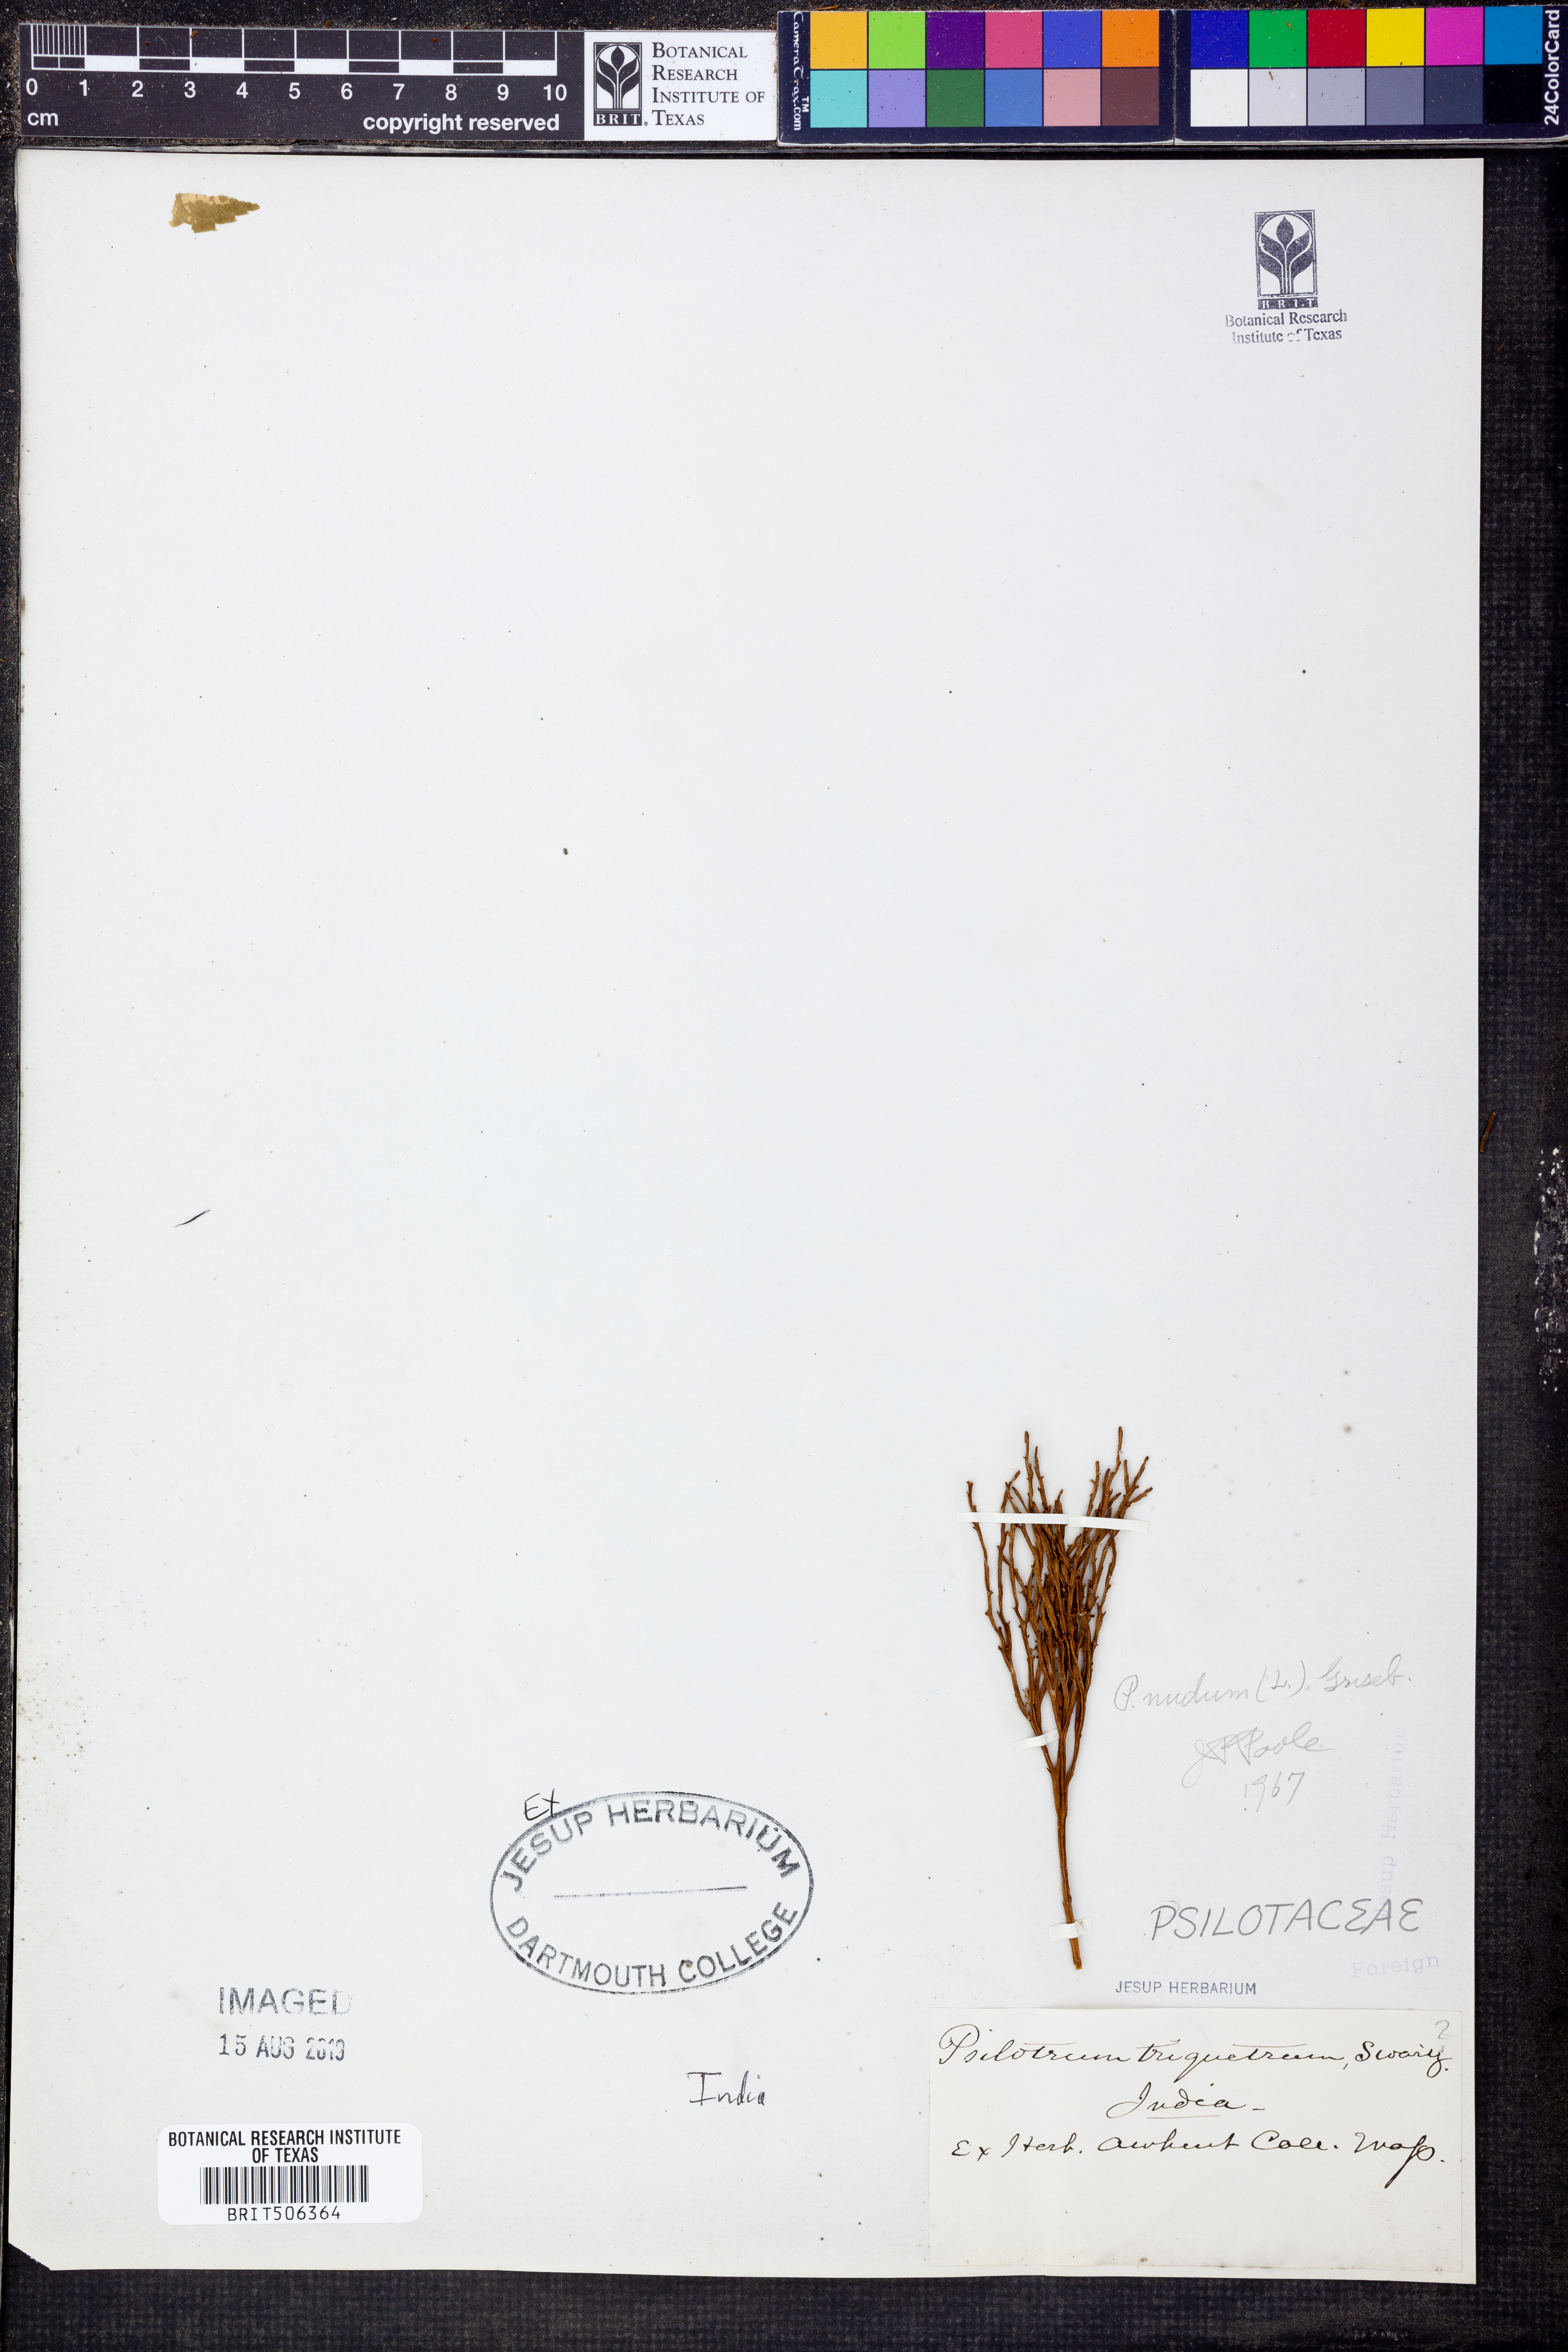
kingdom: Plantae
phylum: Tracheophyta
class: Polypodiopsida
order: Psilotales
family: Psilotaceae
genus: Psilotum
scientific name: Psilotum nudum
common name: Skeleton fork fern
